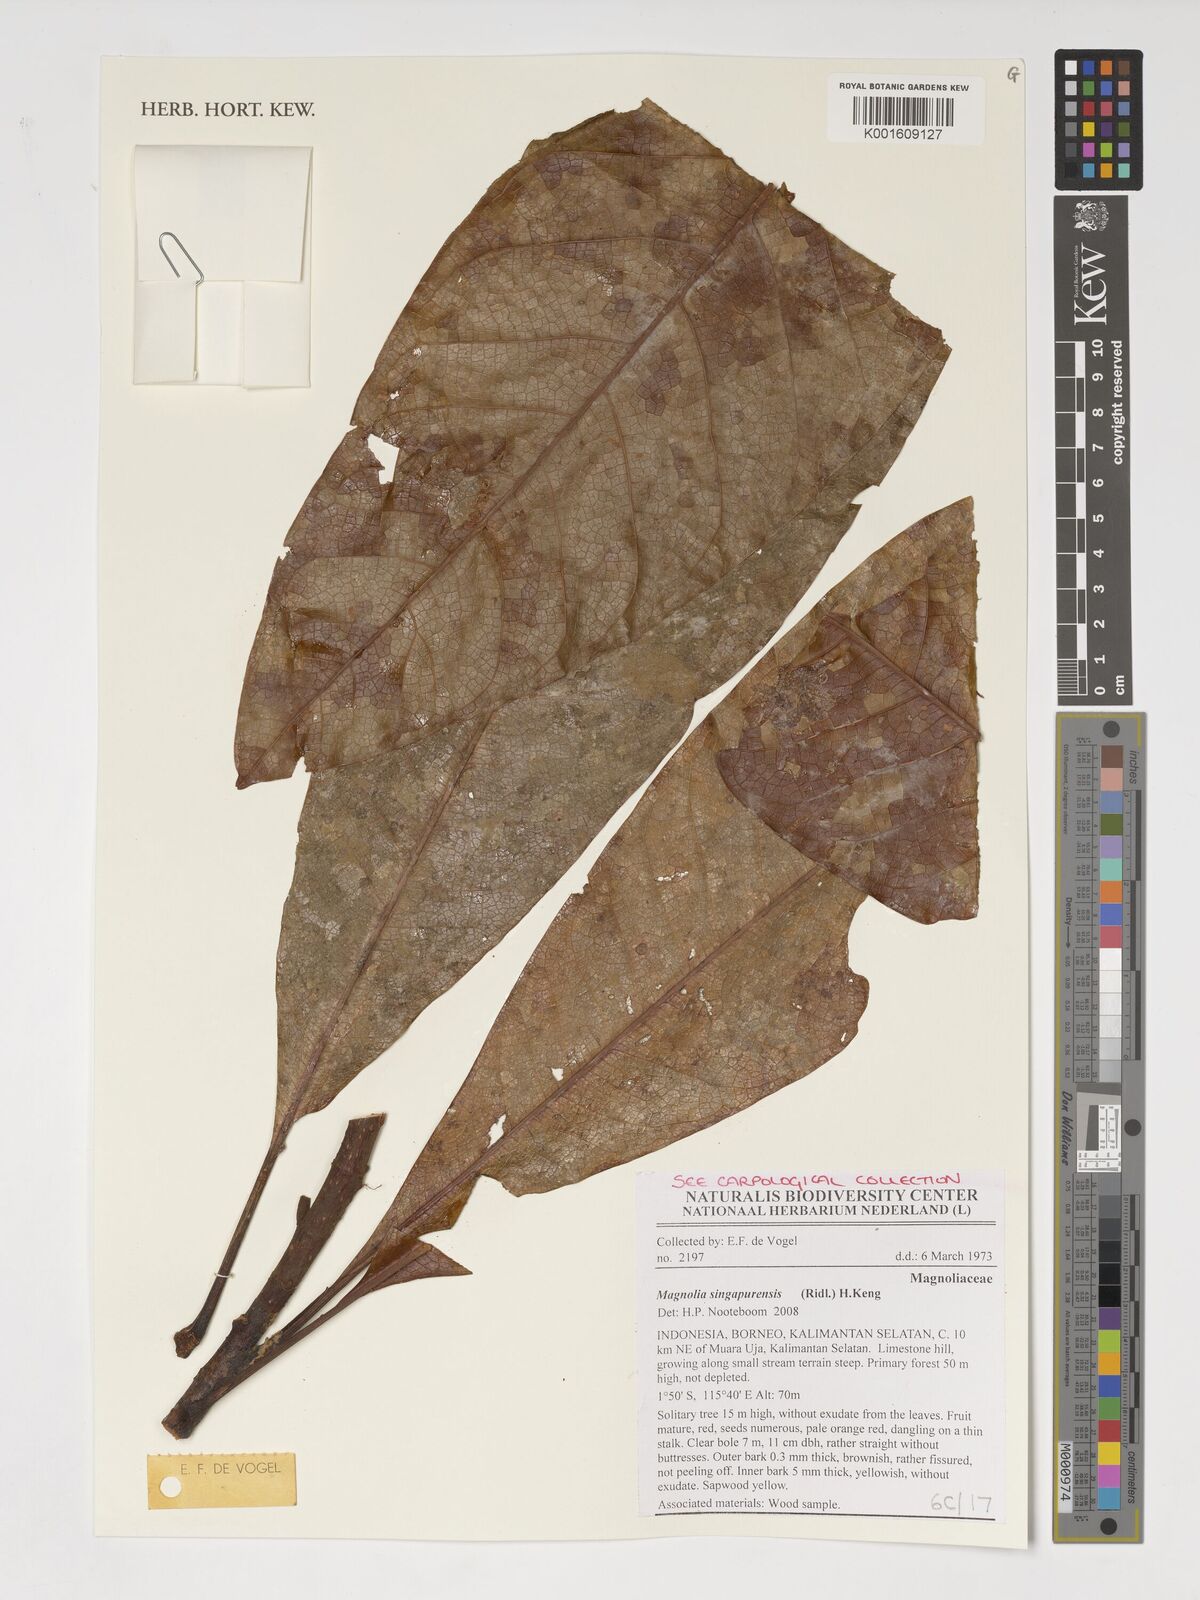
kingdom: Plantae
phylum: Tracheophyta
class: Magnoliopsida
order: Magnoliales
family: Magnoliaceae
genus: Magnolia
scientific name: Magnolia singapurensis
